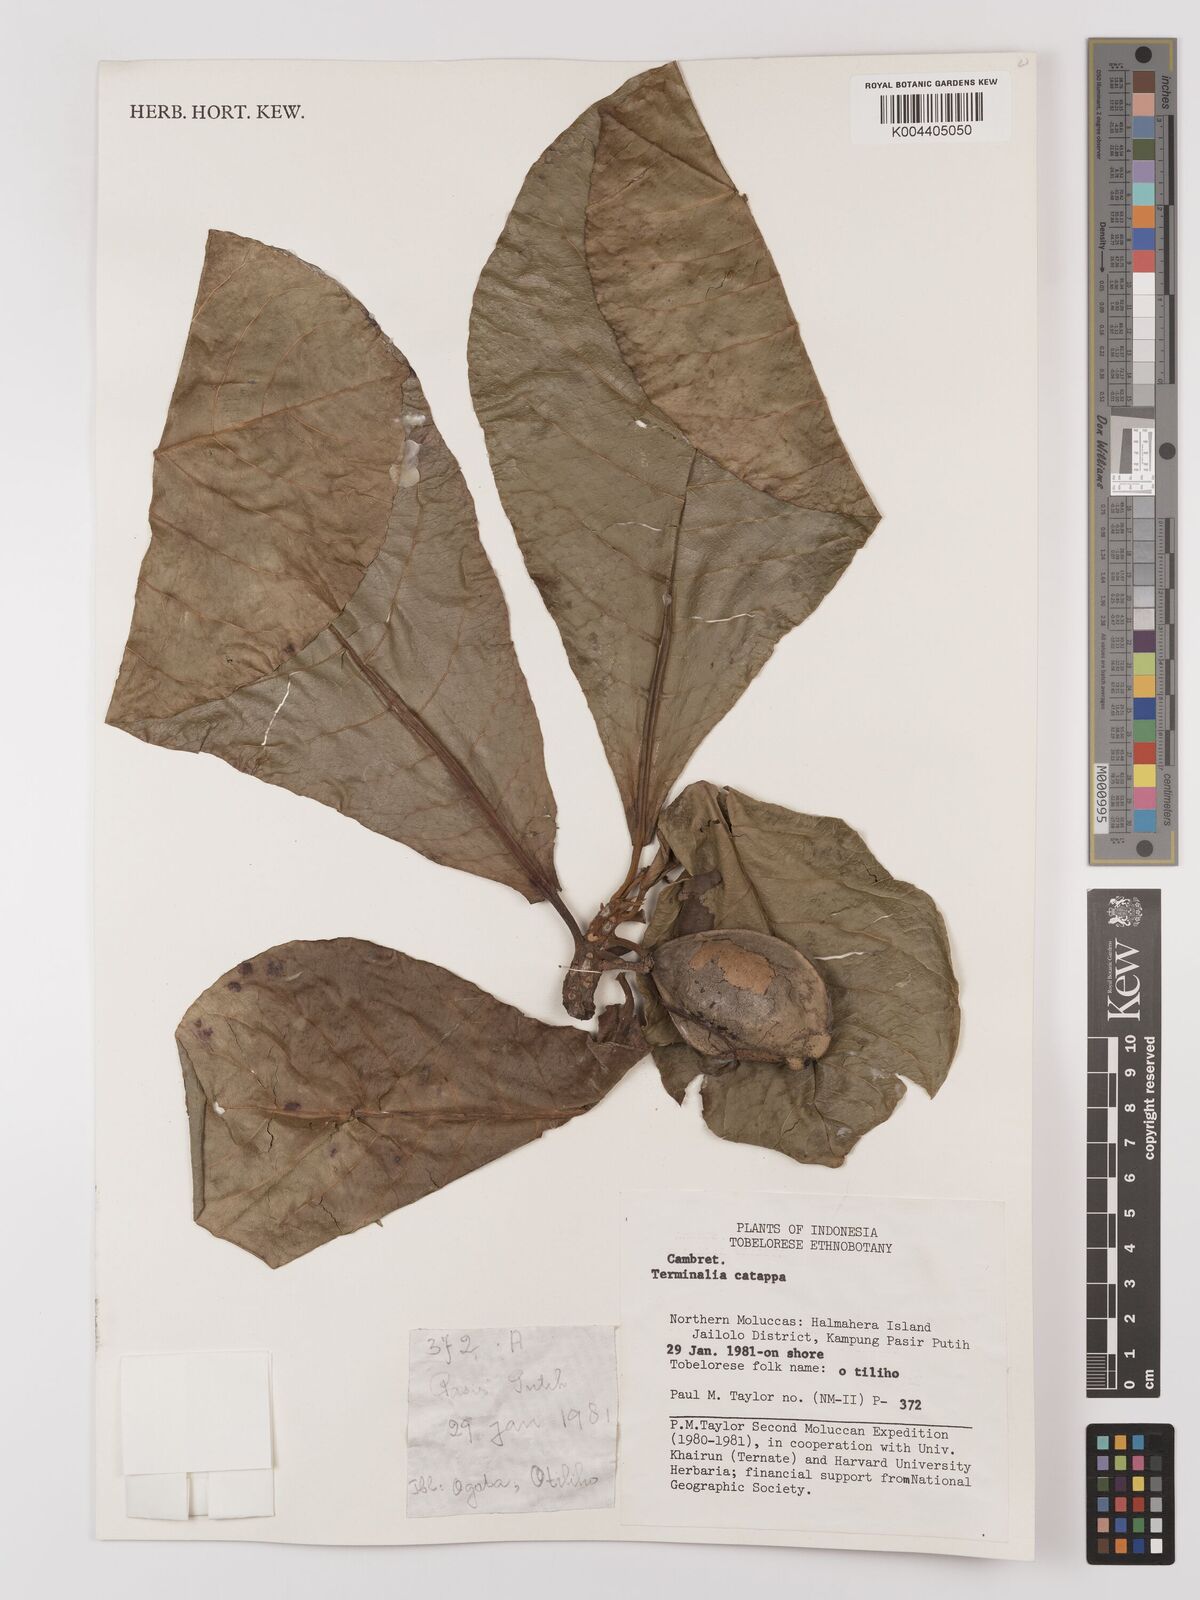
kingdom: Plantae
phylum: Tracheophyta
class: Magnoliopsida
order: Myrtales
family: Combretaceae
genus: Terminalia
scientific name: Terminalia catappa
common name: Tropical almond
